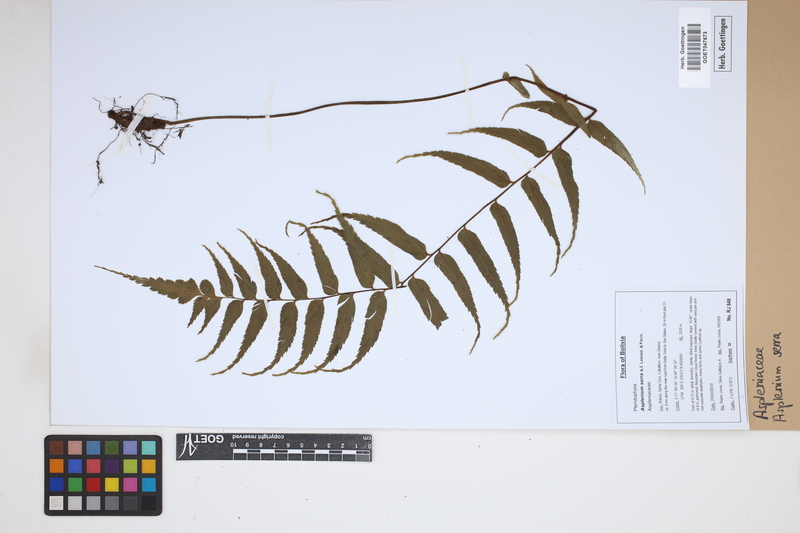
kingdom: Plantae
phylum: Tracheophyta
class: Polypodiopsida
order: Polypodiales
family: Aspleniaceae
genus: Asplenium
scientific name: Asplenium serra
